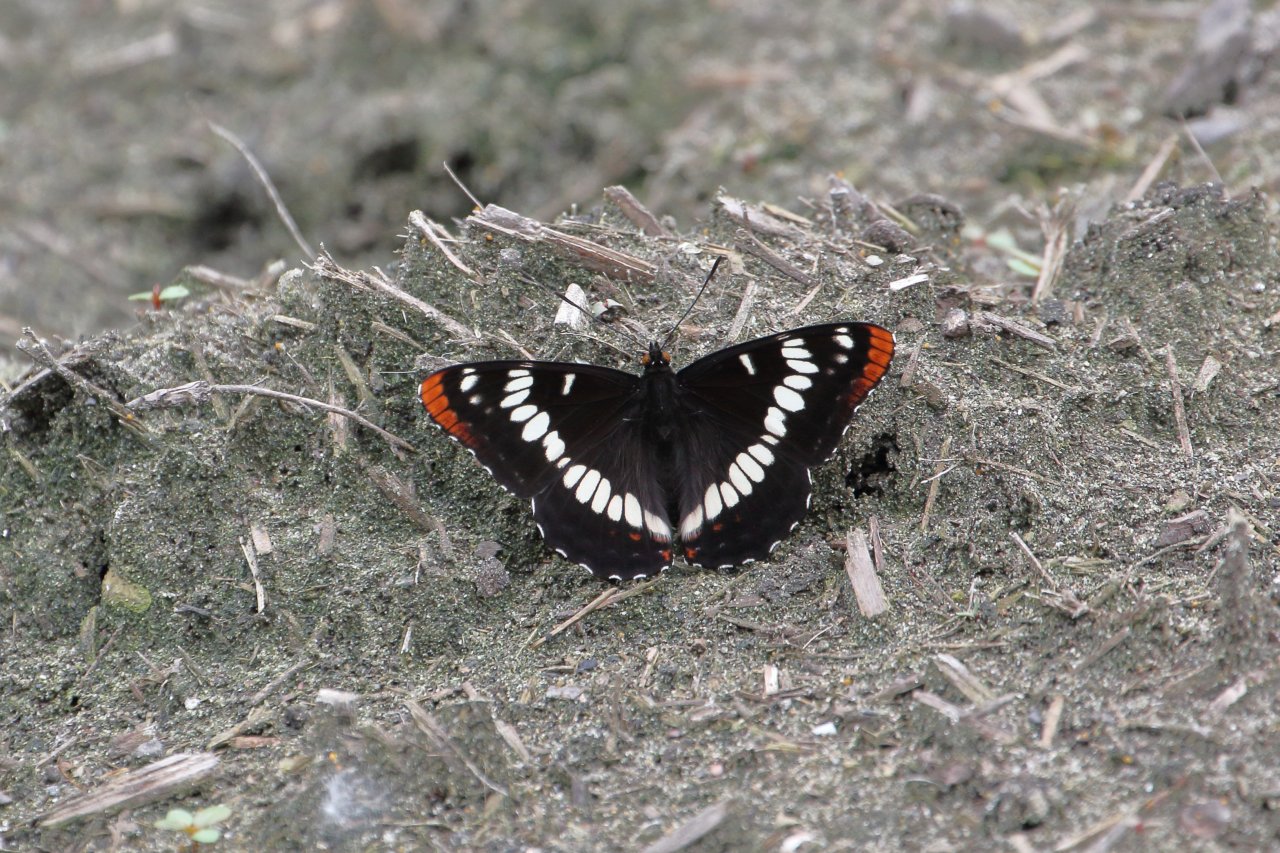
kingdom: Animalia
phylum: Arthropoda
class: Insecta
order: Lepidoptera
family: Nymphalidae
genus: Limenitis
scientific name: Limenitis lorquini
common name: Lorquin's Admiral
